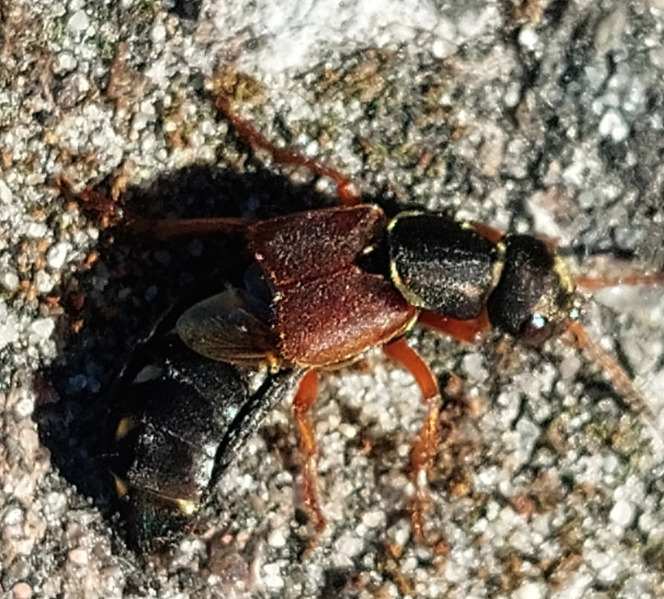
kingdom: Animalia
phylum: Arthropoda
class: Insecta
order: Coleoptera
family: Staphylinidae
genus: Staphylinus
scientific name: Staphylinus erythropterus
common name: Rødvinget rovbille
